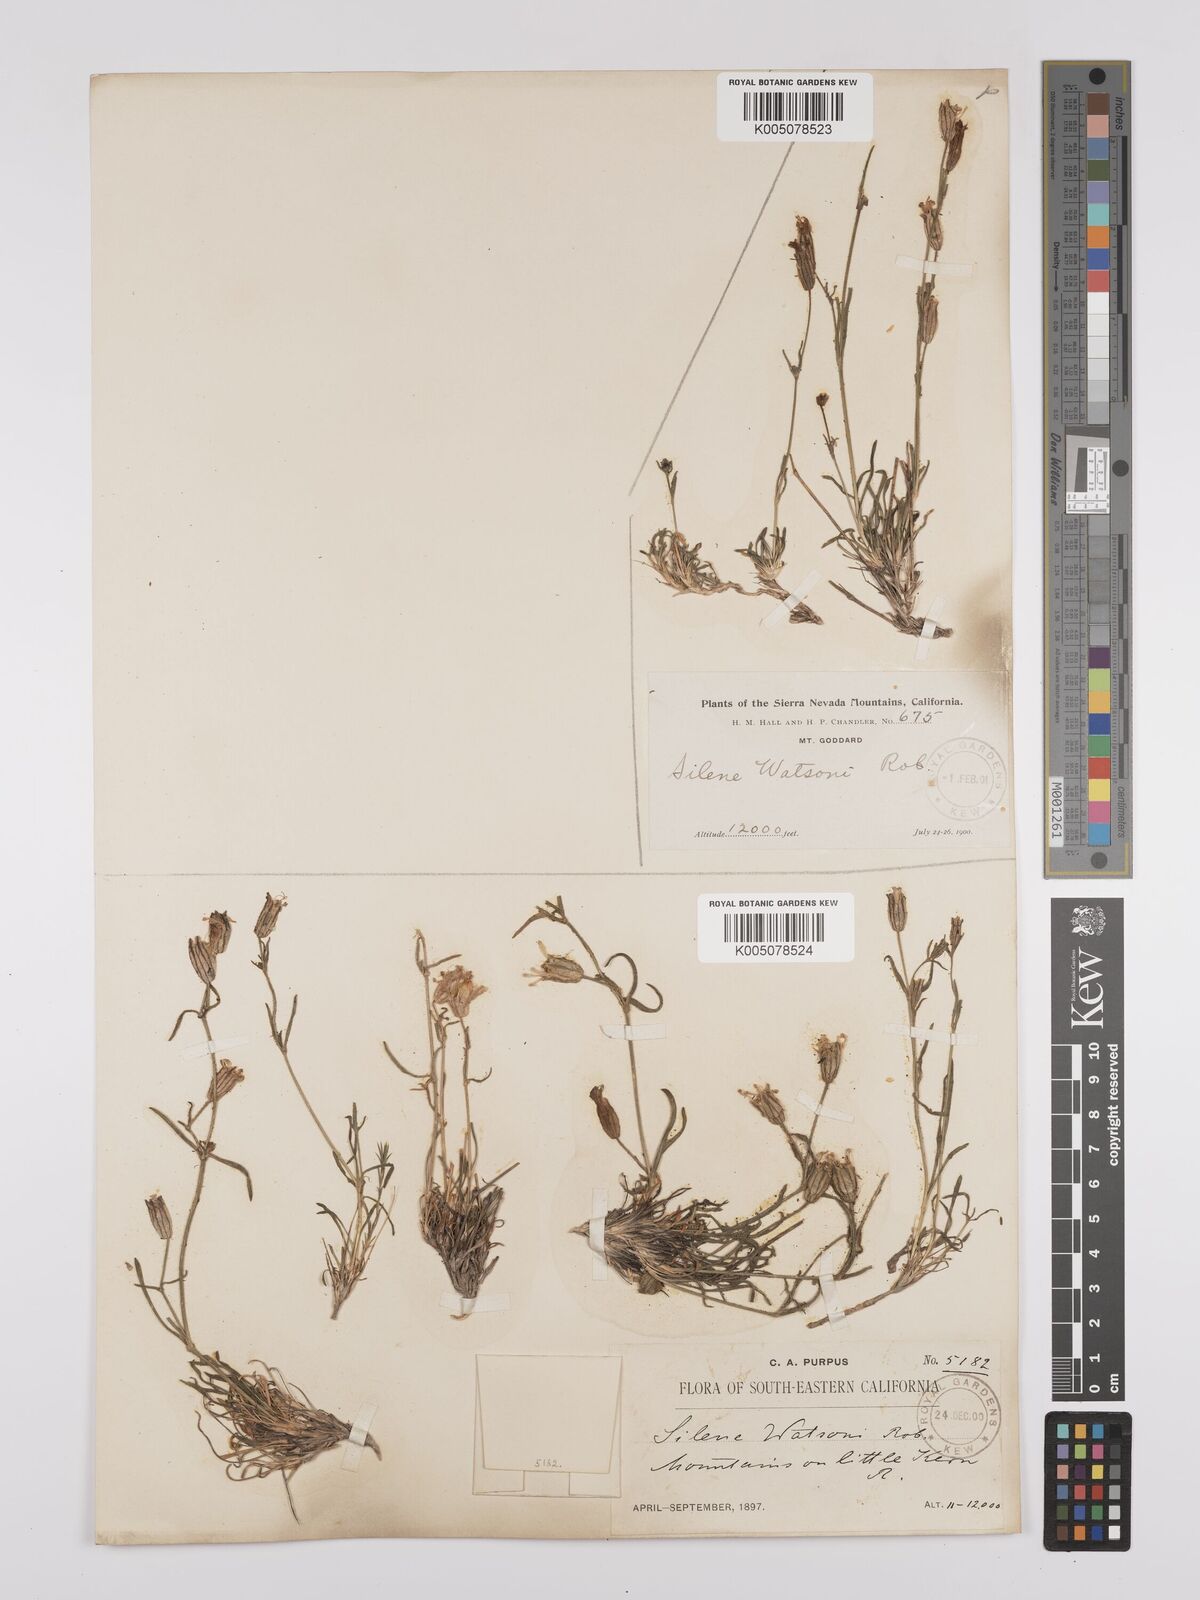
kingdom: Plantae
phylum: Tracheophyta
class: Magnoliopsida
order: Caryophyllales
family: Caryophyllaceae
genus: Silene
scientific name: Silene sargentii
